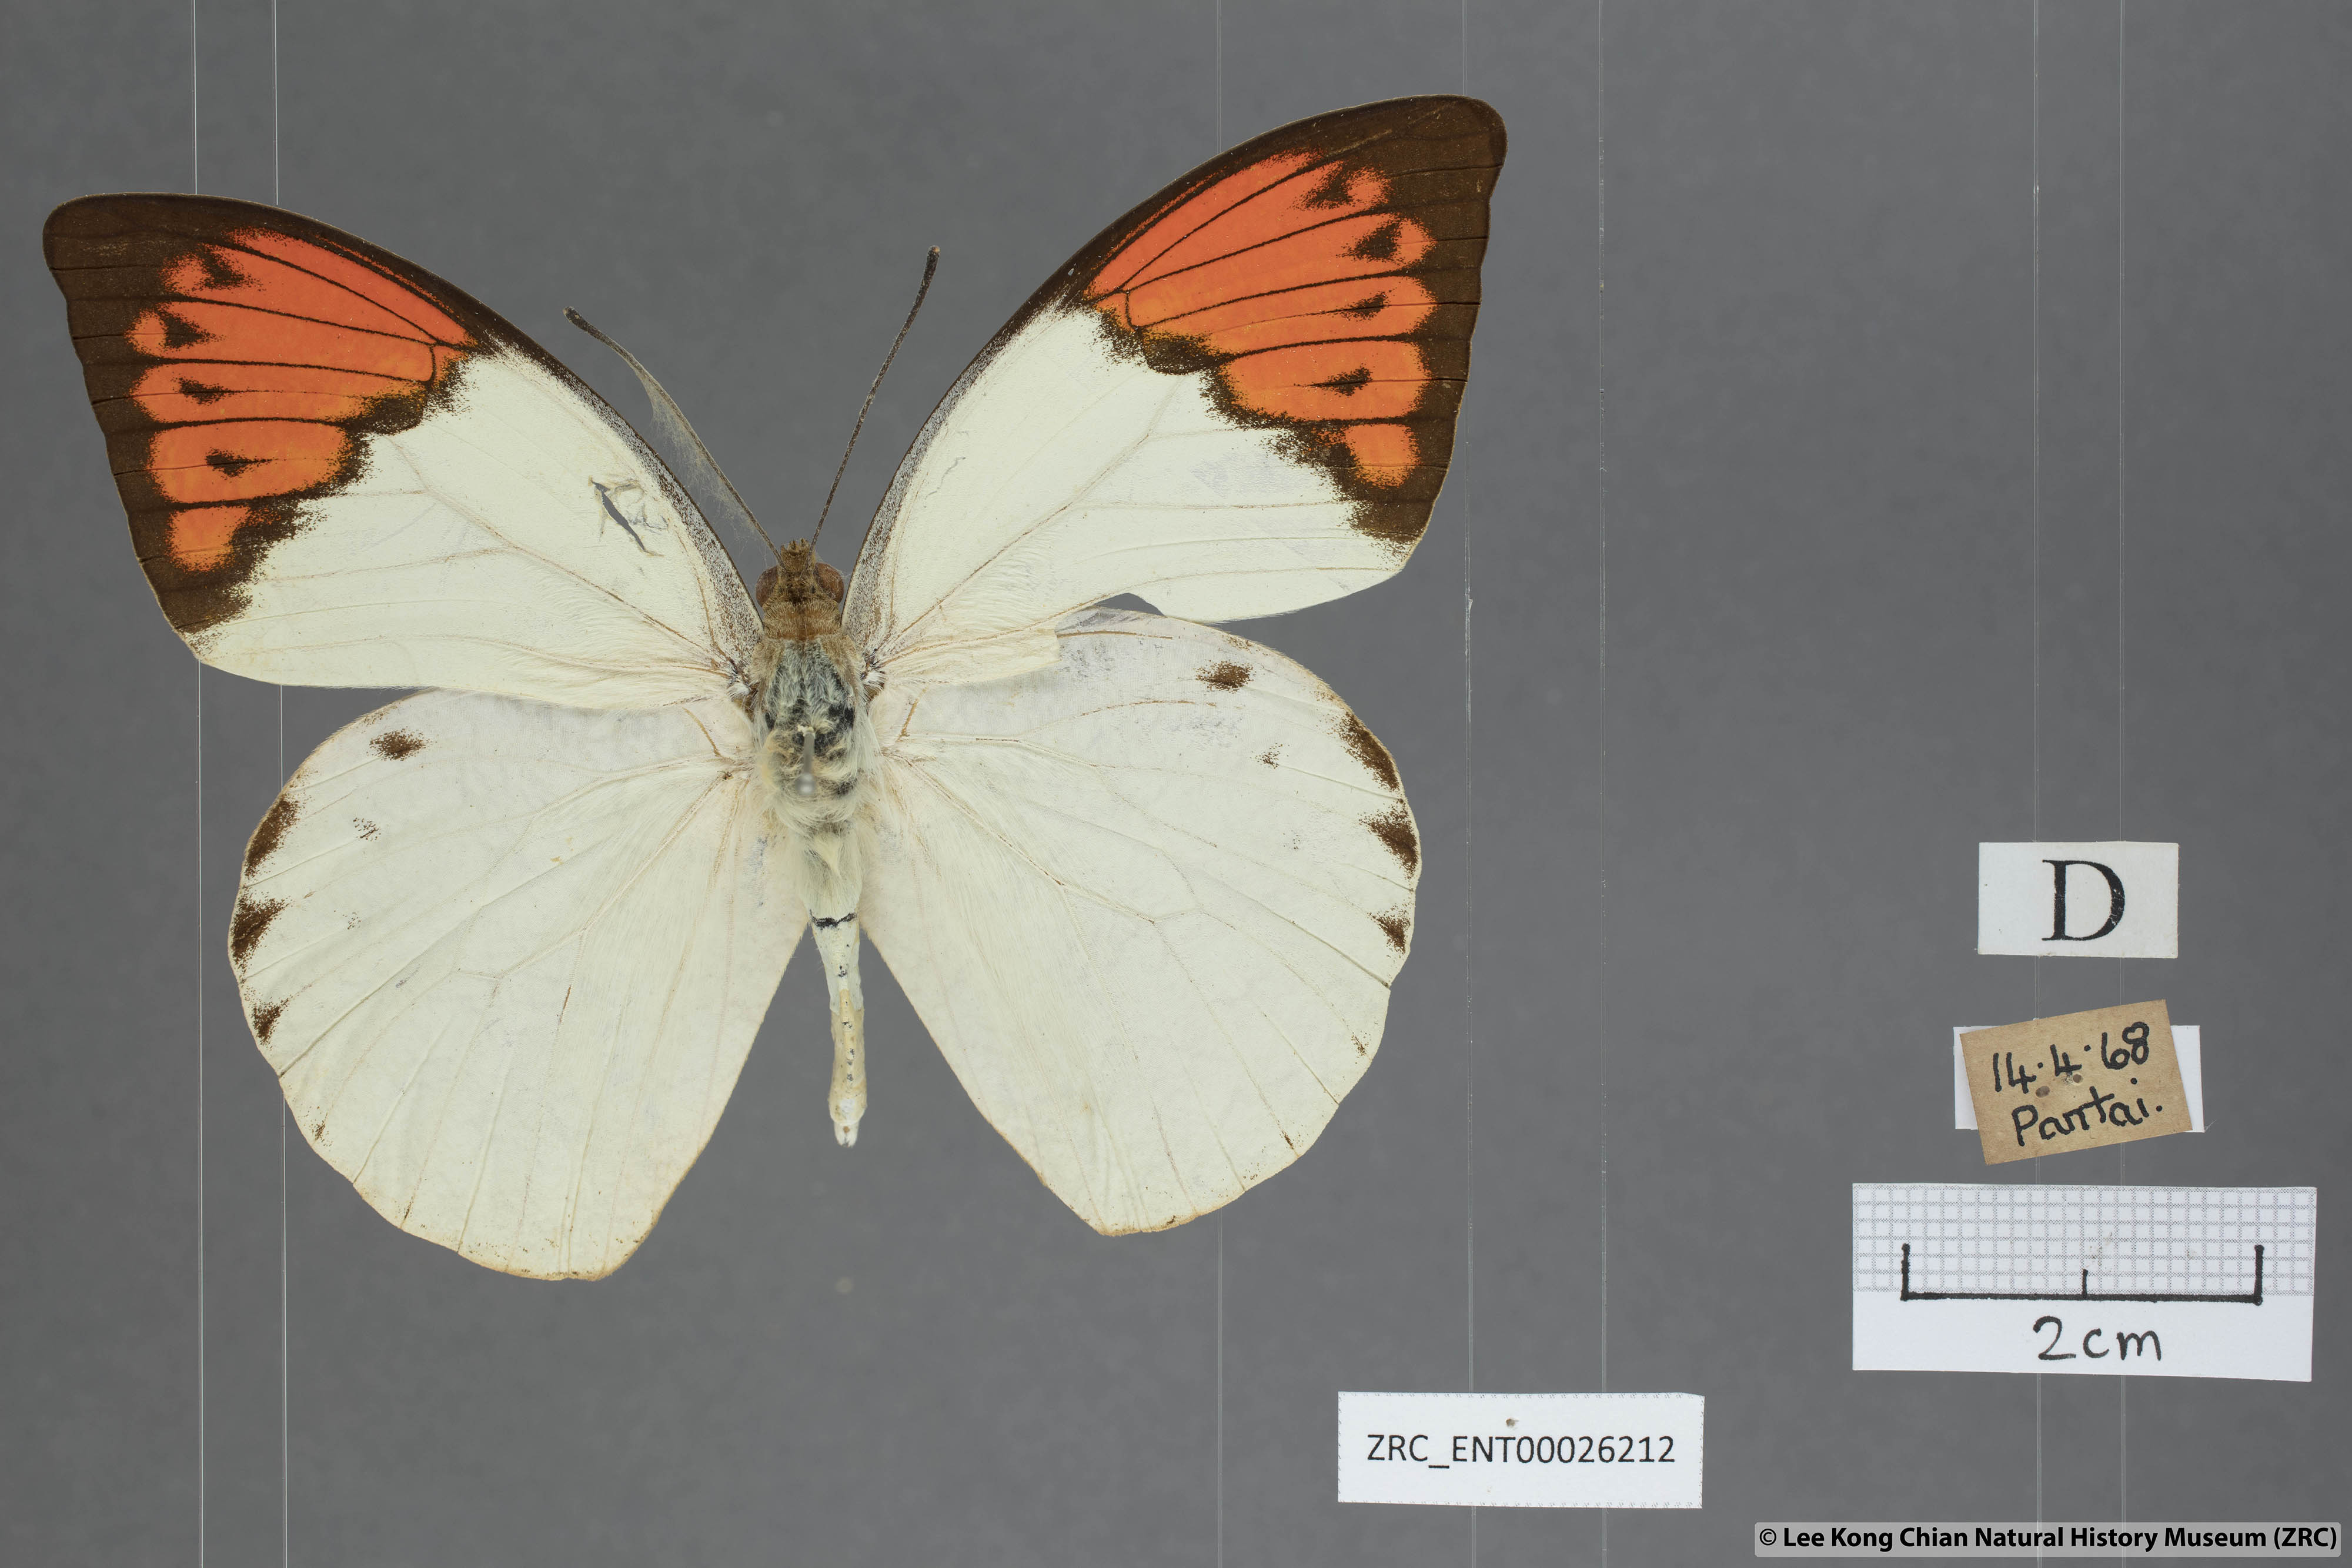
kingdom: Animalia
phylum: Arthropoda
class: Insecta
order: Lepidoptera
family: Pieridae
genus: Hebomoia
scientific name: Hebomoia glaucippe
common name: Great orange tip
